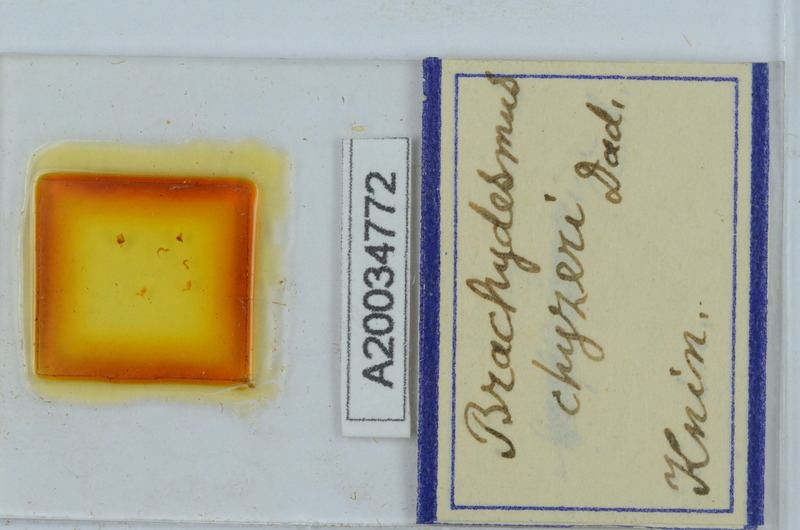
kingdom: Animalia
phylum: Arthropoda
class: Diplopoda
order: Polydesmida
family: Polydesmidae
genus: Brachydesmus
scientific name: Brachydesmus chyzeri
